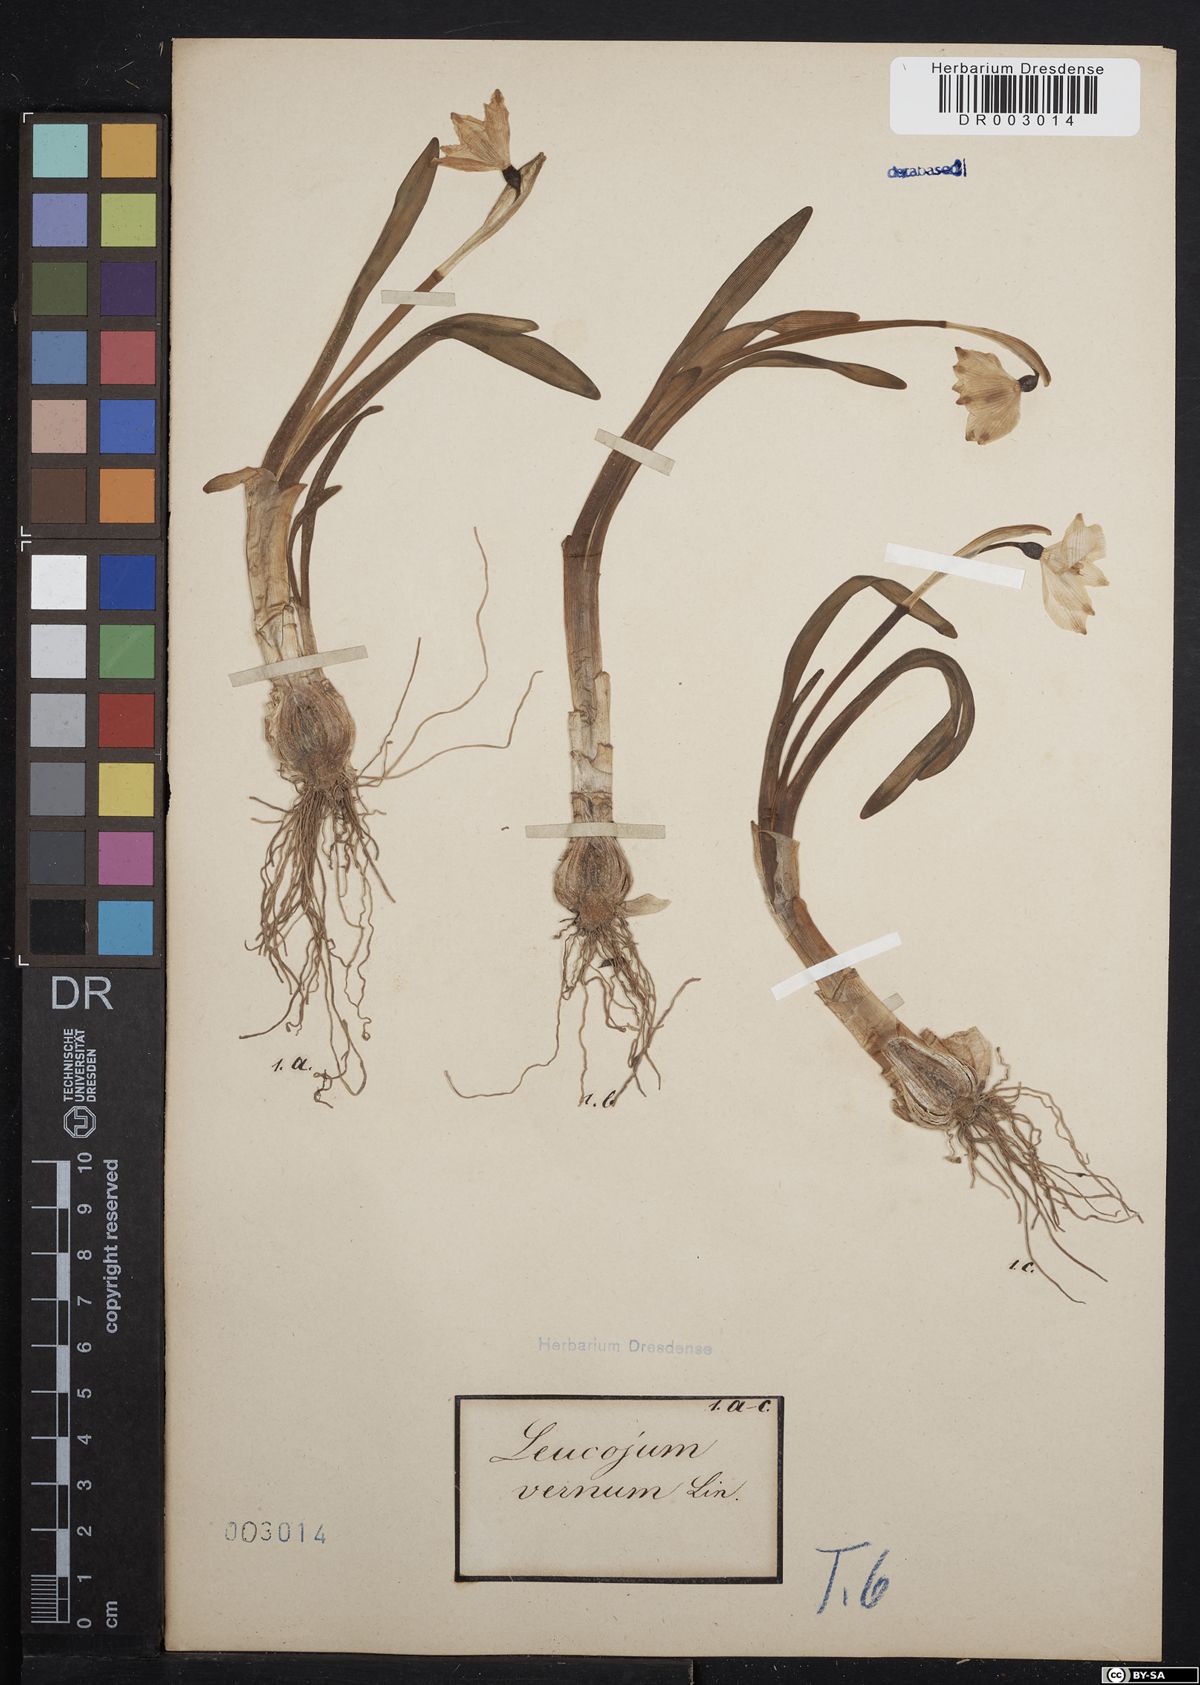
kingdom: Plantae
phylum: Tracheophyta
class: Liliopsida
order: Asparagales
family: Amaryllidaceae
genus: Leucojum
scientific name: Leucojum vernum
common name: Spring snowflake
